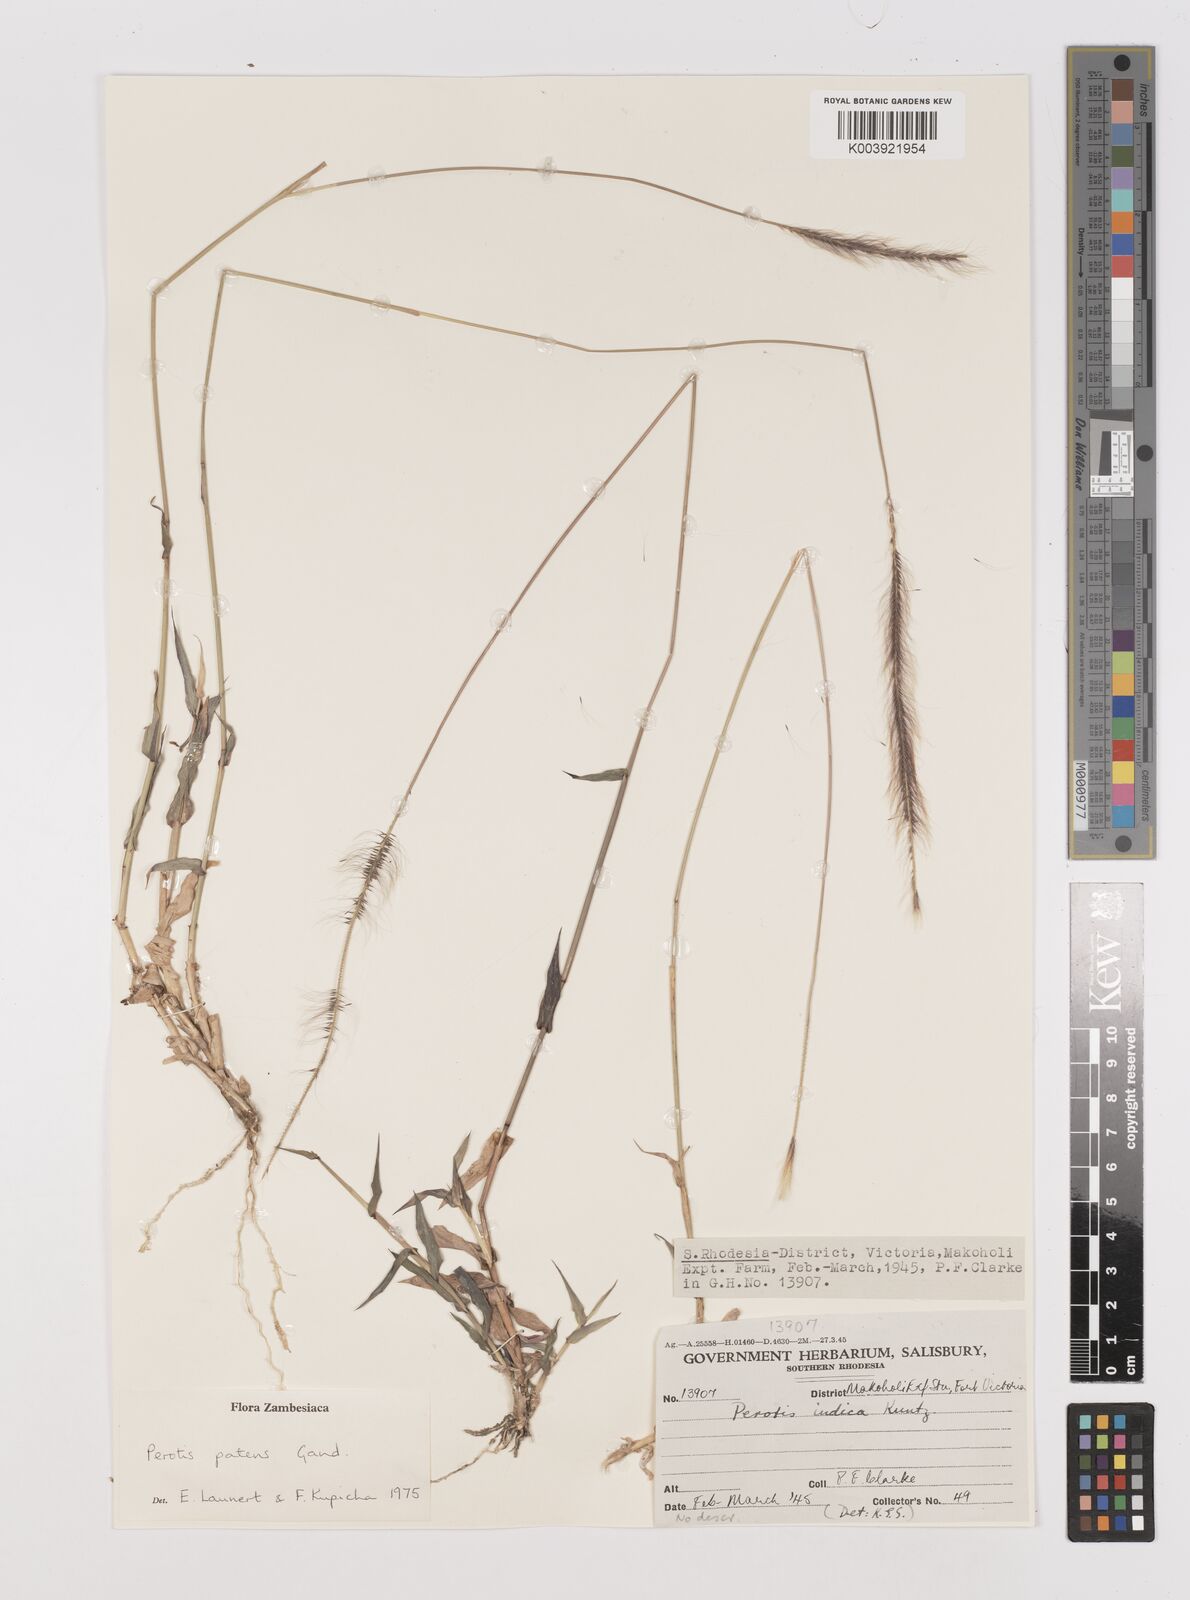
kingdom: Plantae
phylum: Tracheophyta
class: Liliopsida
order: Poales
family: Poaceae
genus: Perotis
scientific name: Perotis patens
